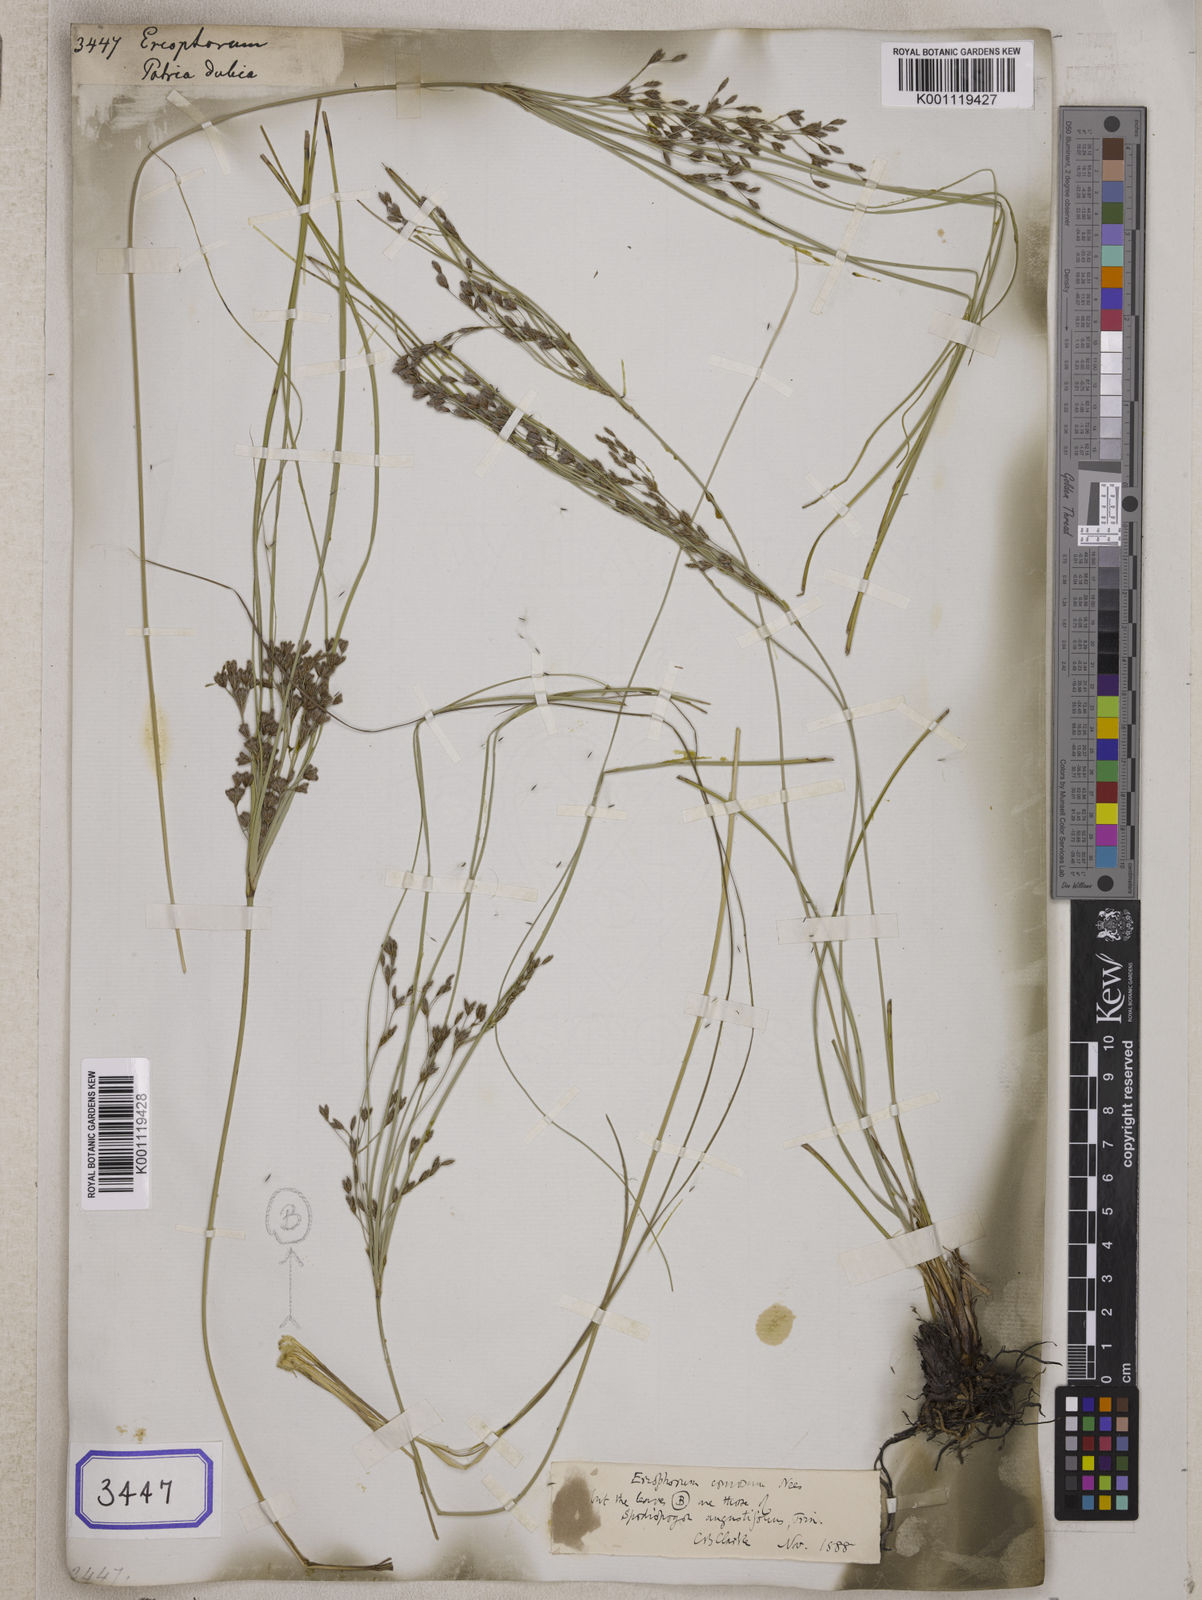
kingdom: Plantae
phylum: Tracheophyta
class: Liliopsida
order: Poales
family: Cyperaceae
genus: Eriophorum
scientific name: Eriophorum
